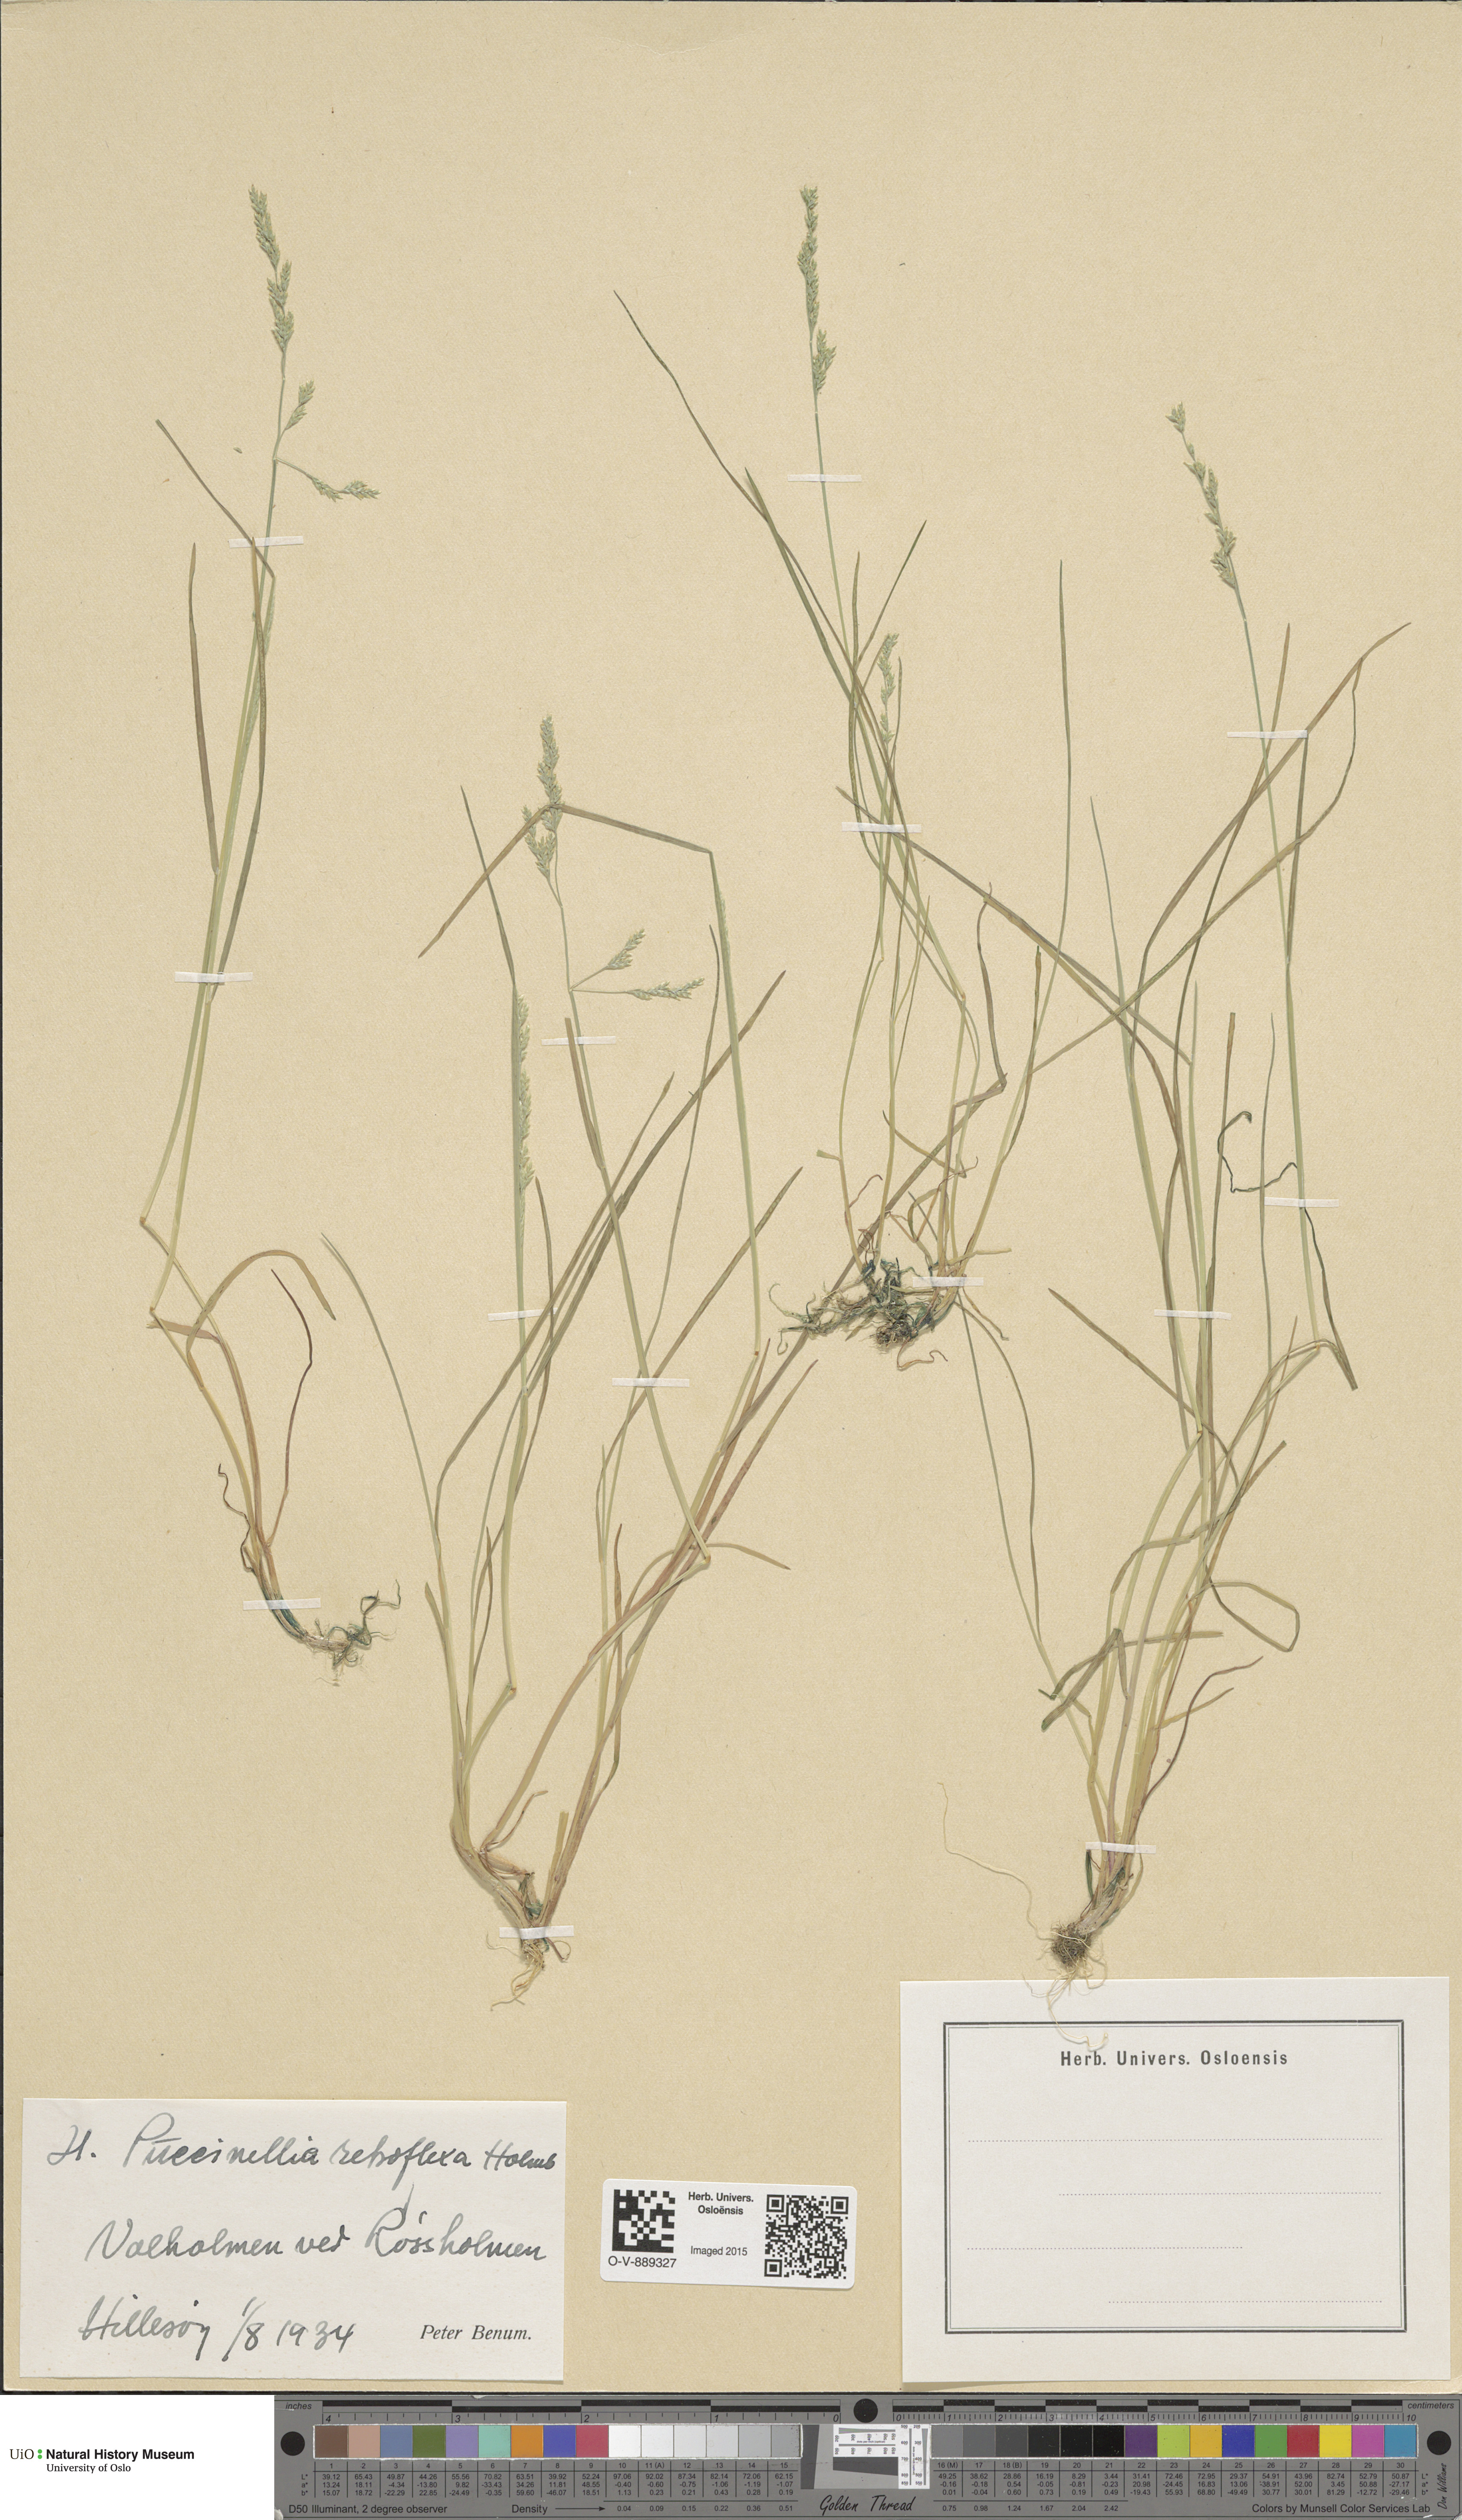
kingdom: Plantae
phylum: Tracheophyta
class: Liliopsida
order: Poales
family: Poaceae
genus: Puccinellia
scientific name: Puccinellia distans
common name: Weeping alkaligrass
